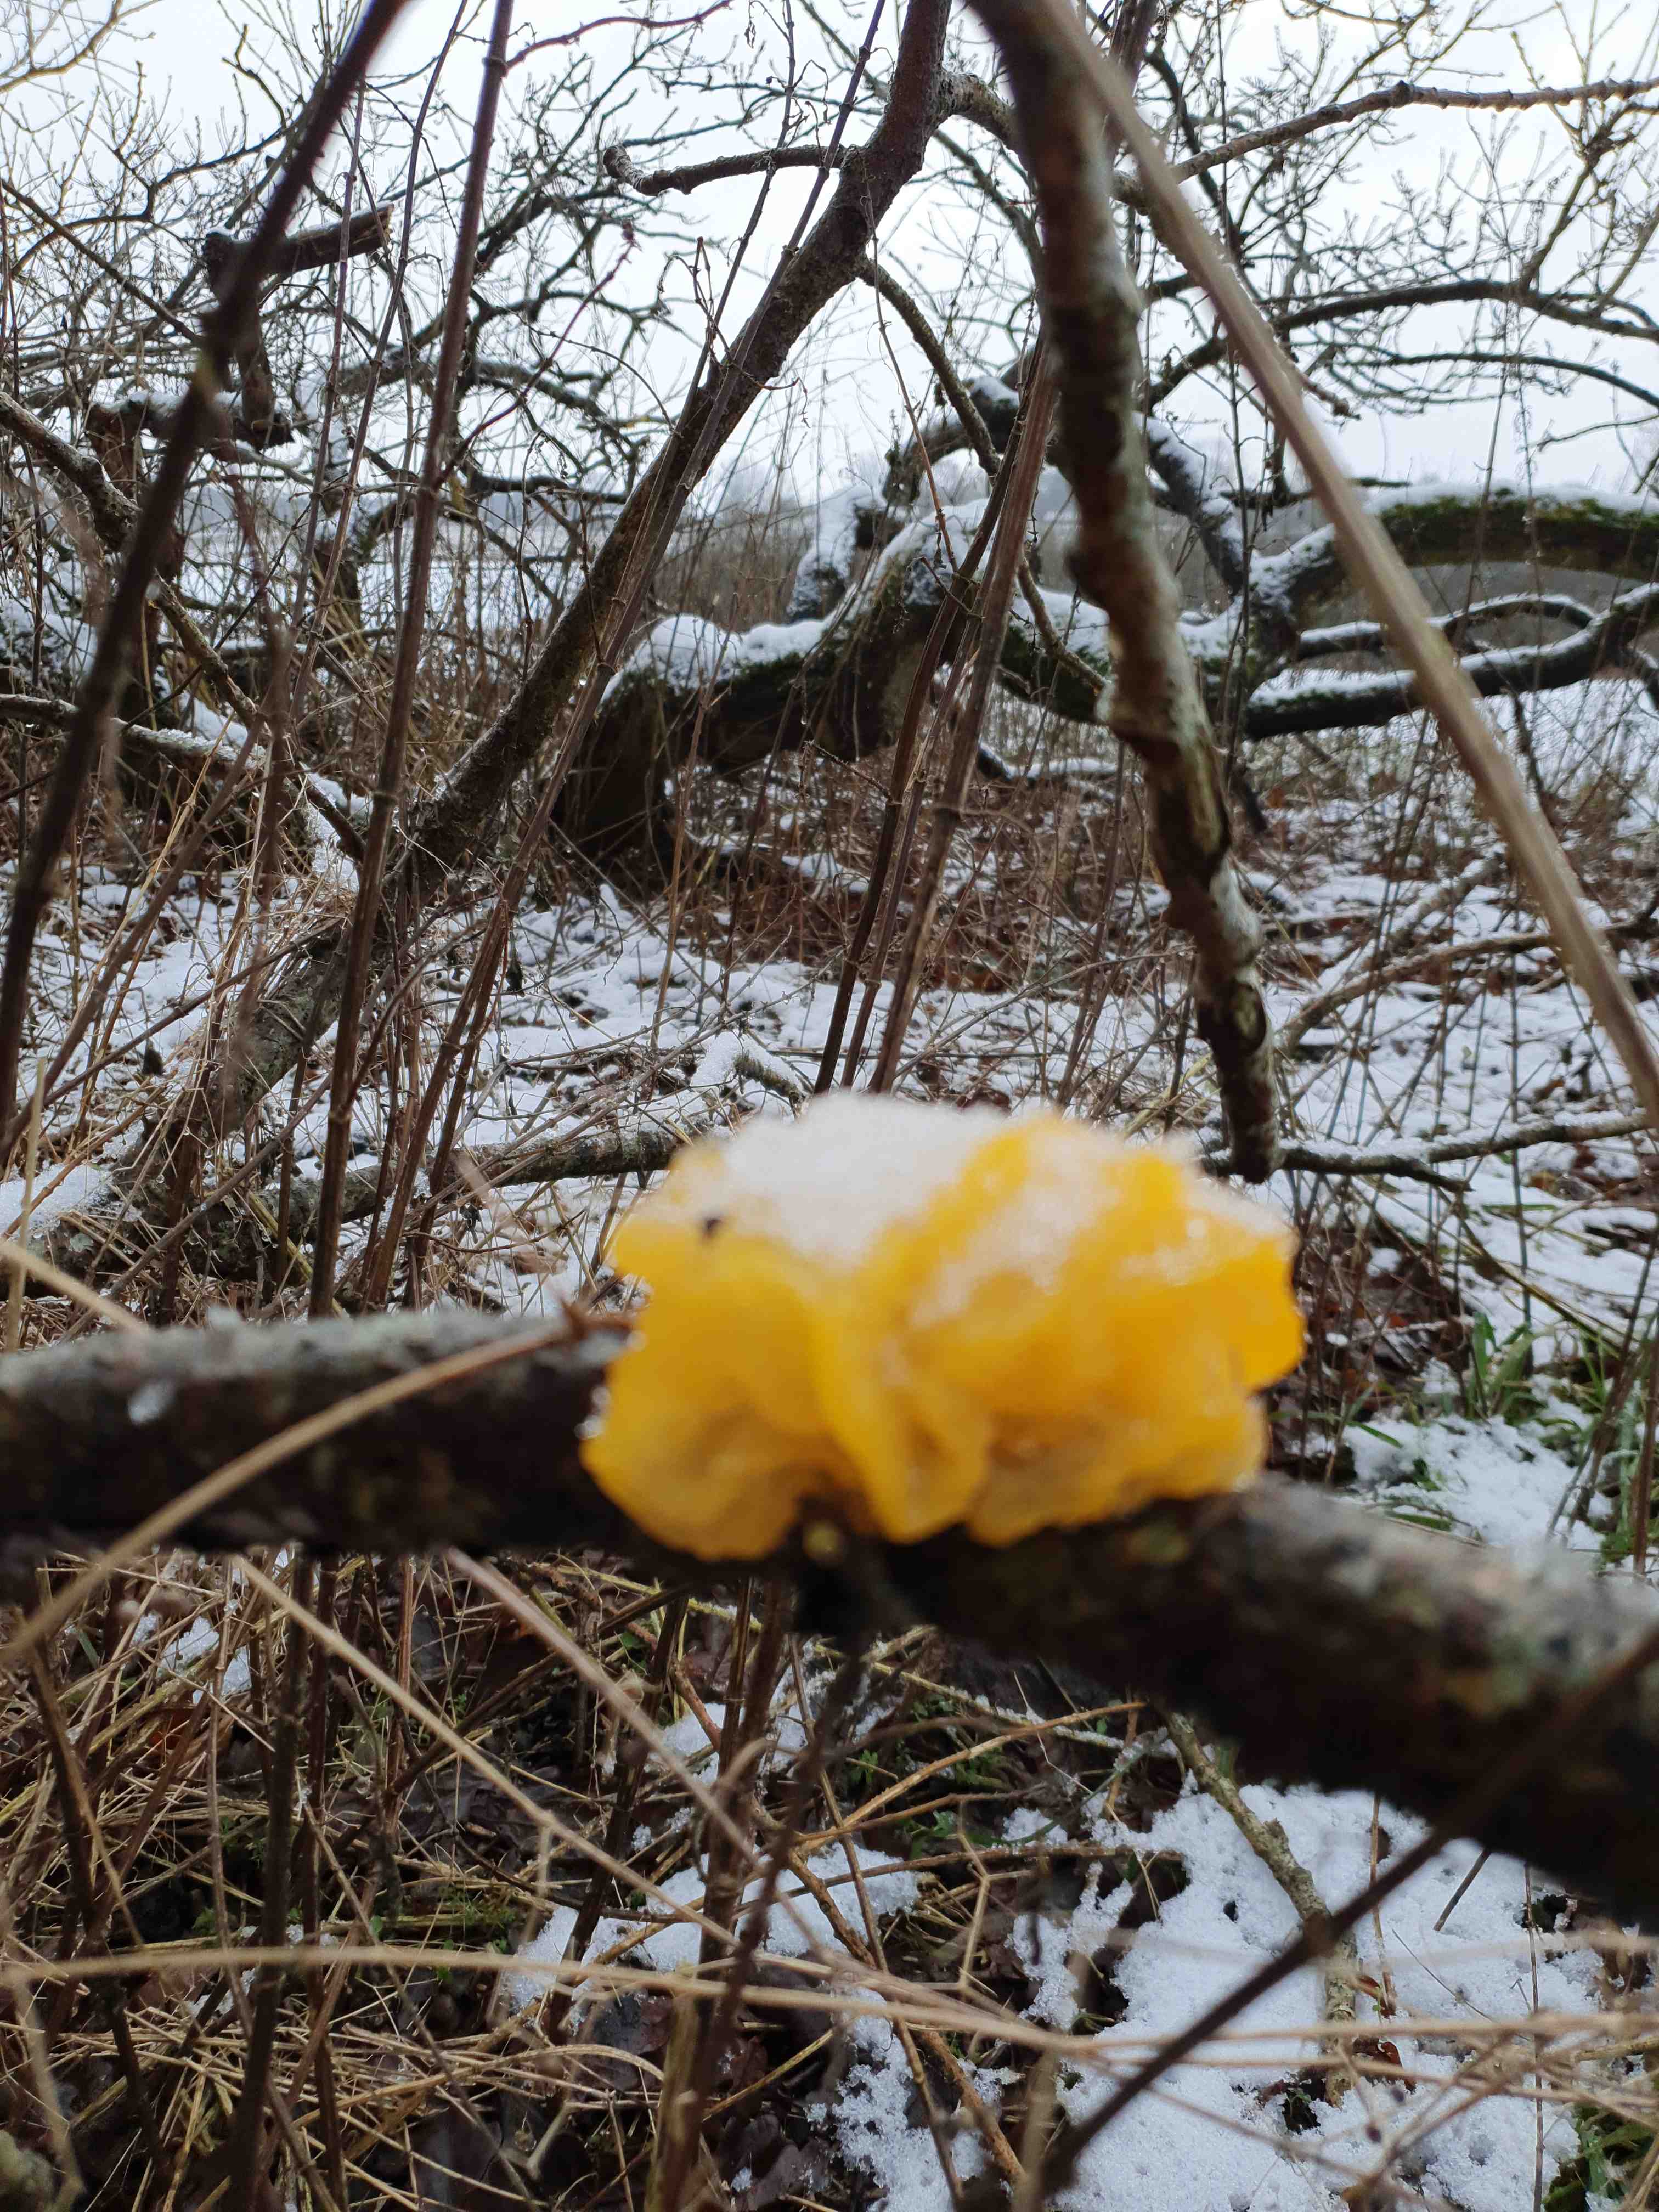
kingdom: Fungi
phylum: Basidiomycota
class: Tremellomycetes
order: Tremellales
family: Tremellaceae
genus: Tremella
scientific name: Tremella mesenterica
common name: gul bævresvamp
